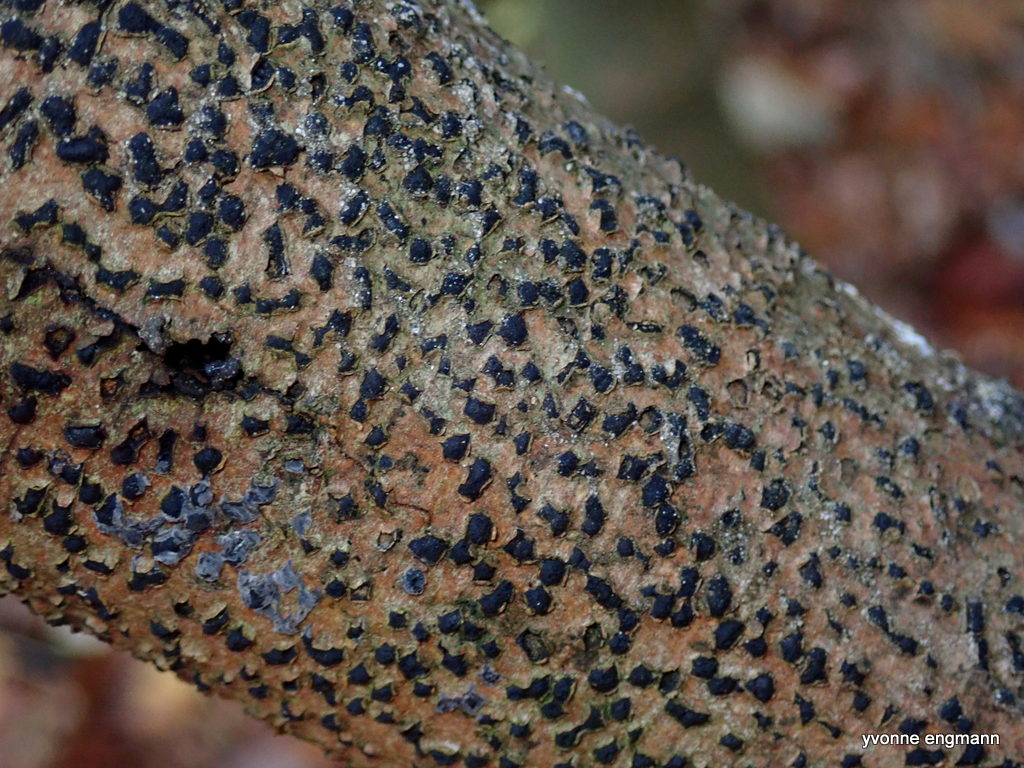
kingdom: Fungi
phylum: Ascomycota
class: Sordariomycetes
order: Xylariales
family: Diatrypaceae
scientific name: Diatrypaceae
